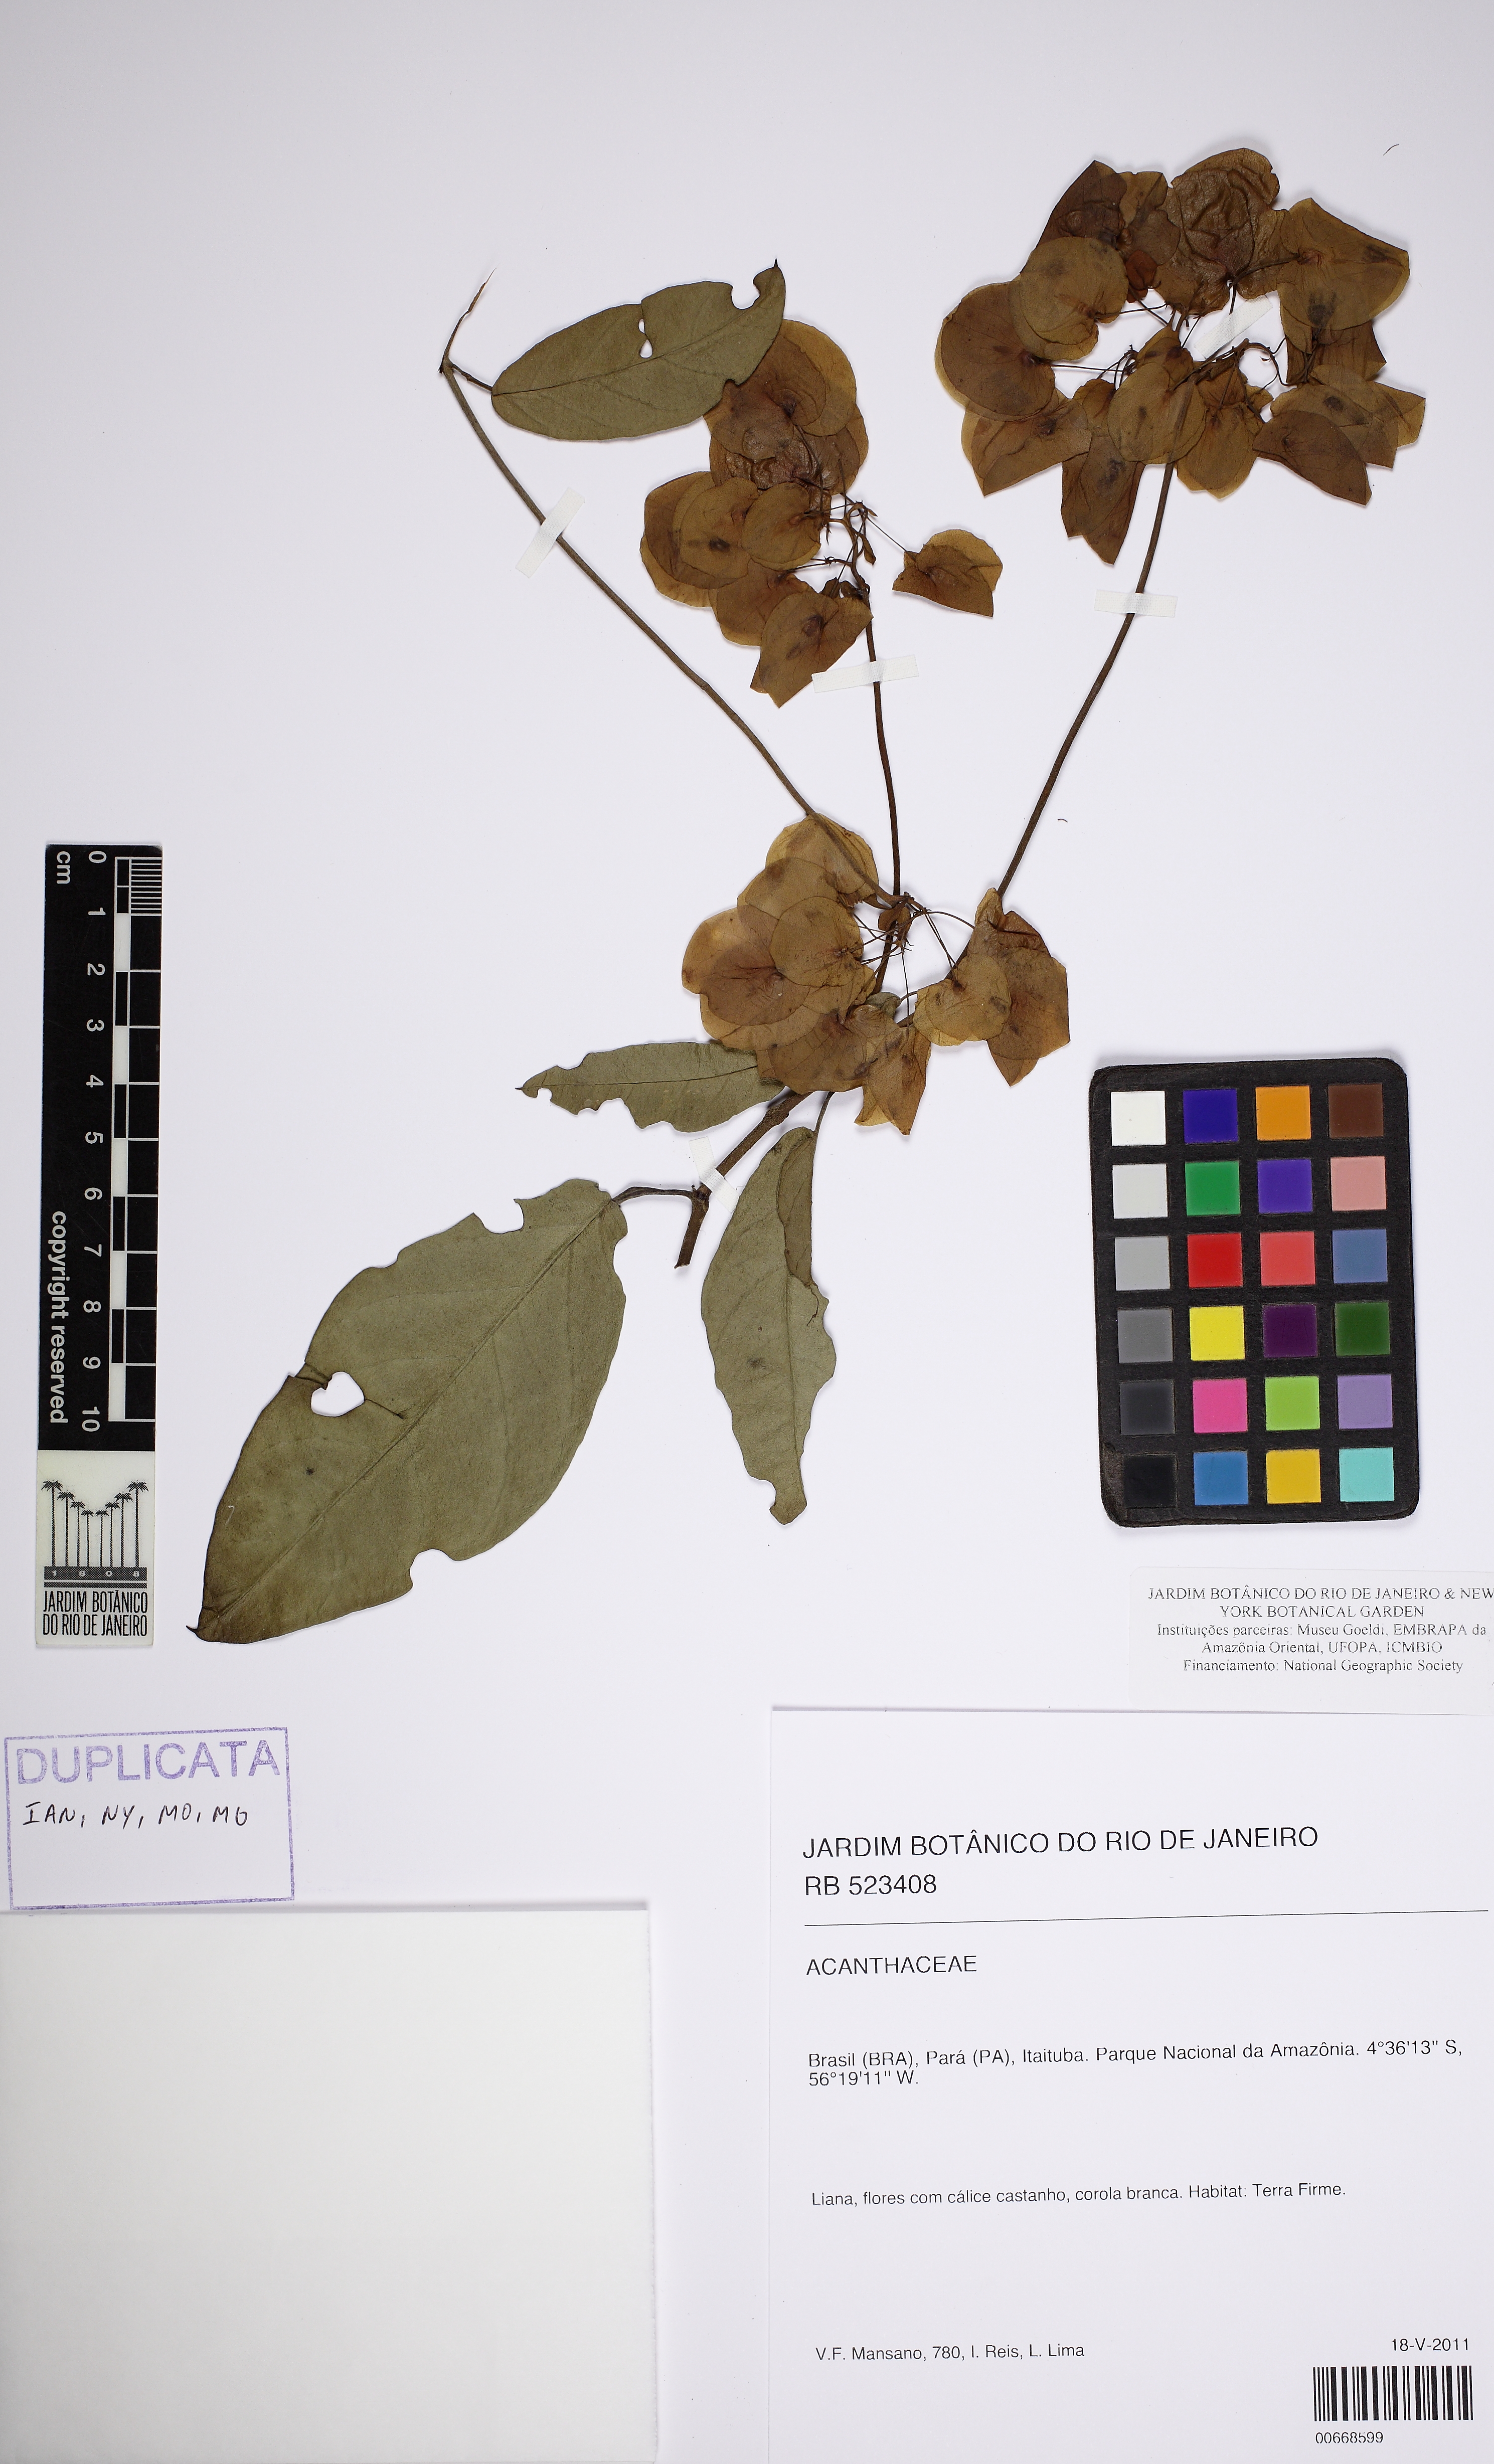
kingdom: Plantae
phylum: Tracheophyta
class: Magnoliopsida
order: Solanales
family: Convolvulaceae
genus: Calycobolus
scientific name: Calycobolus glaber
